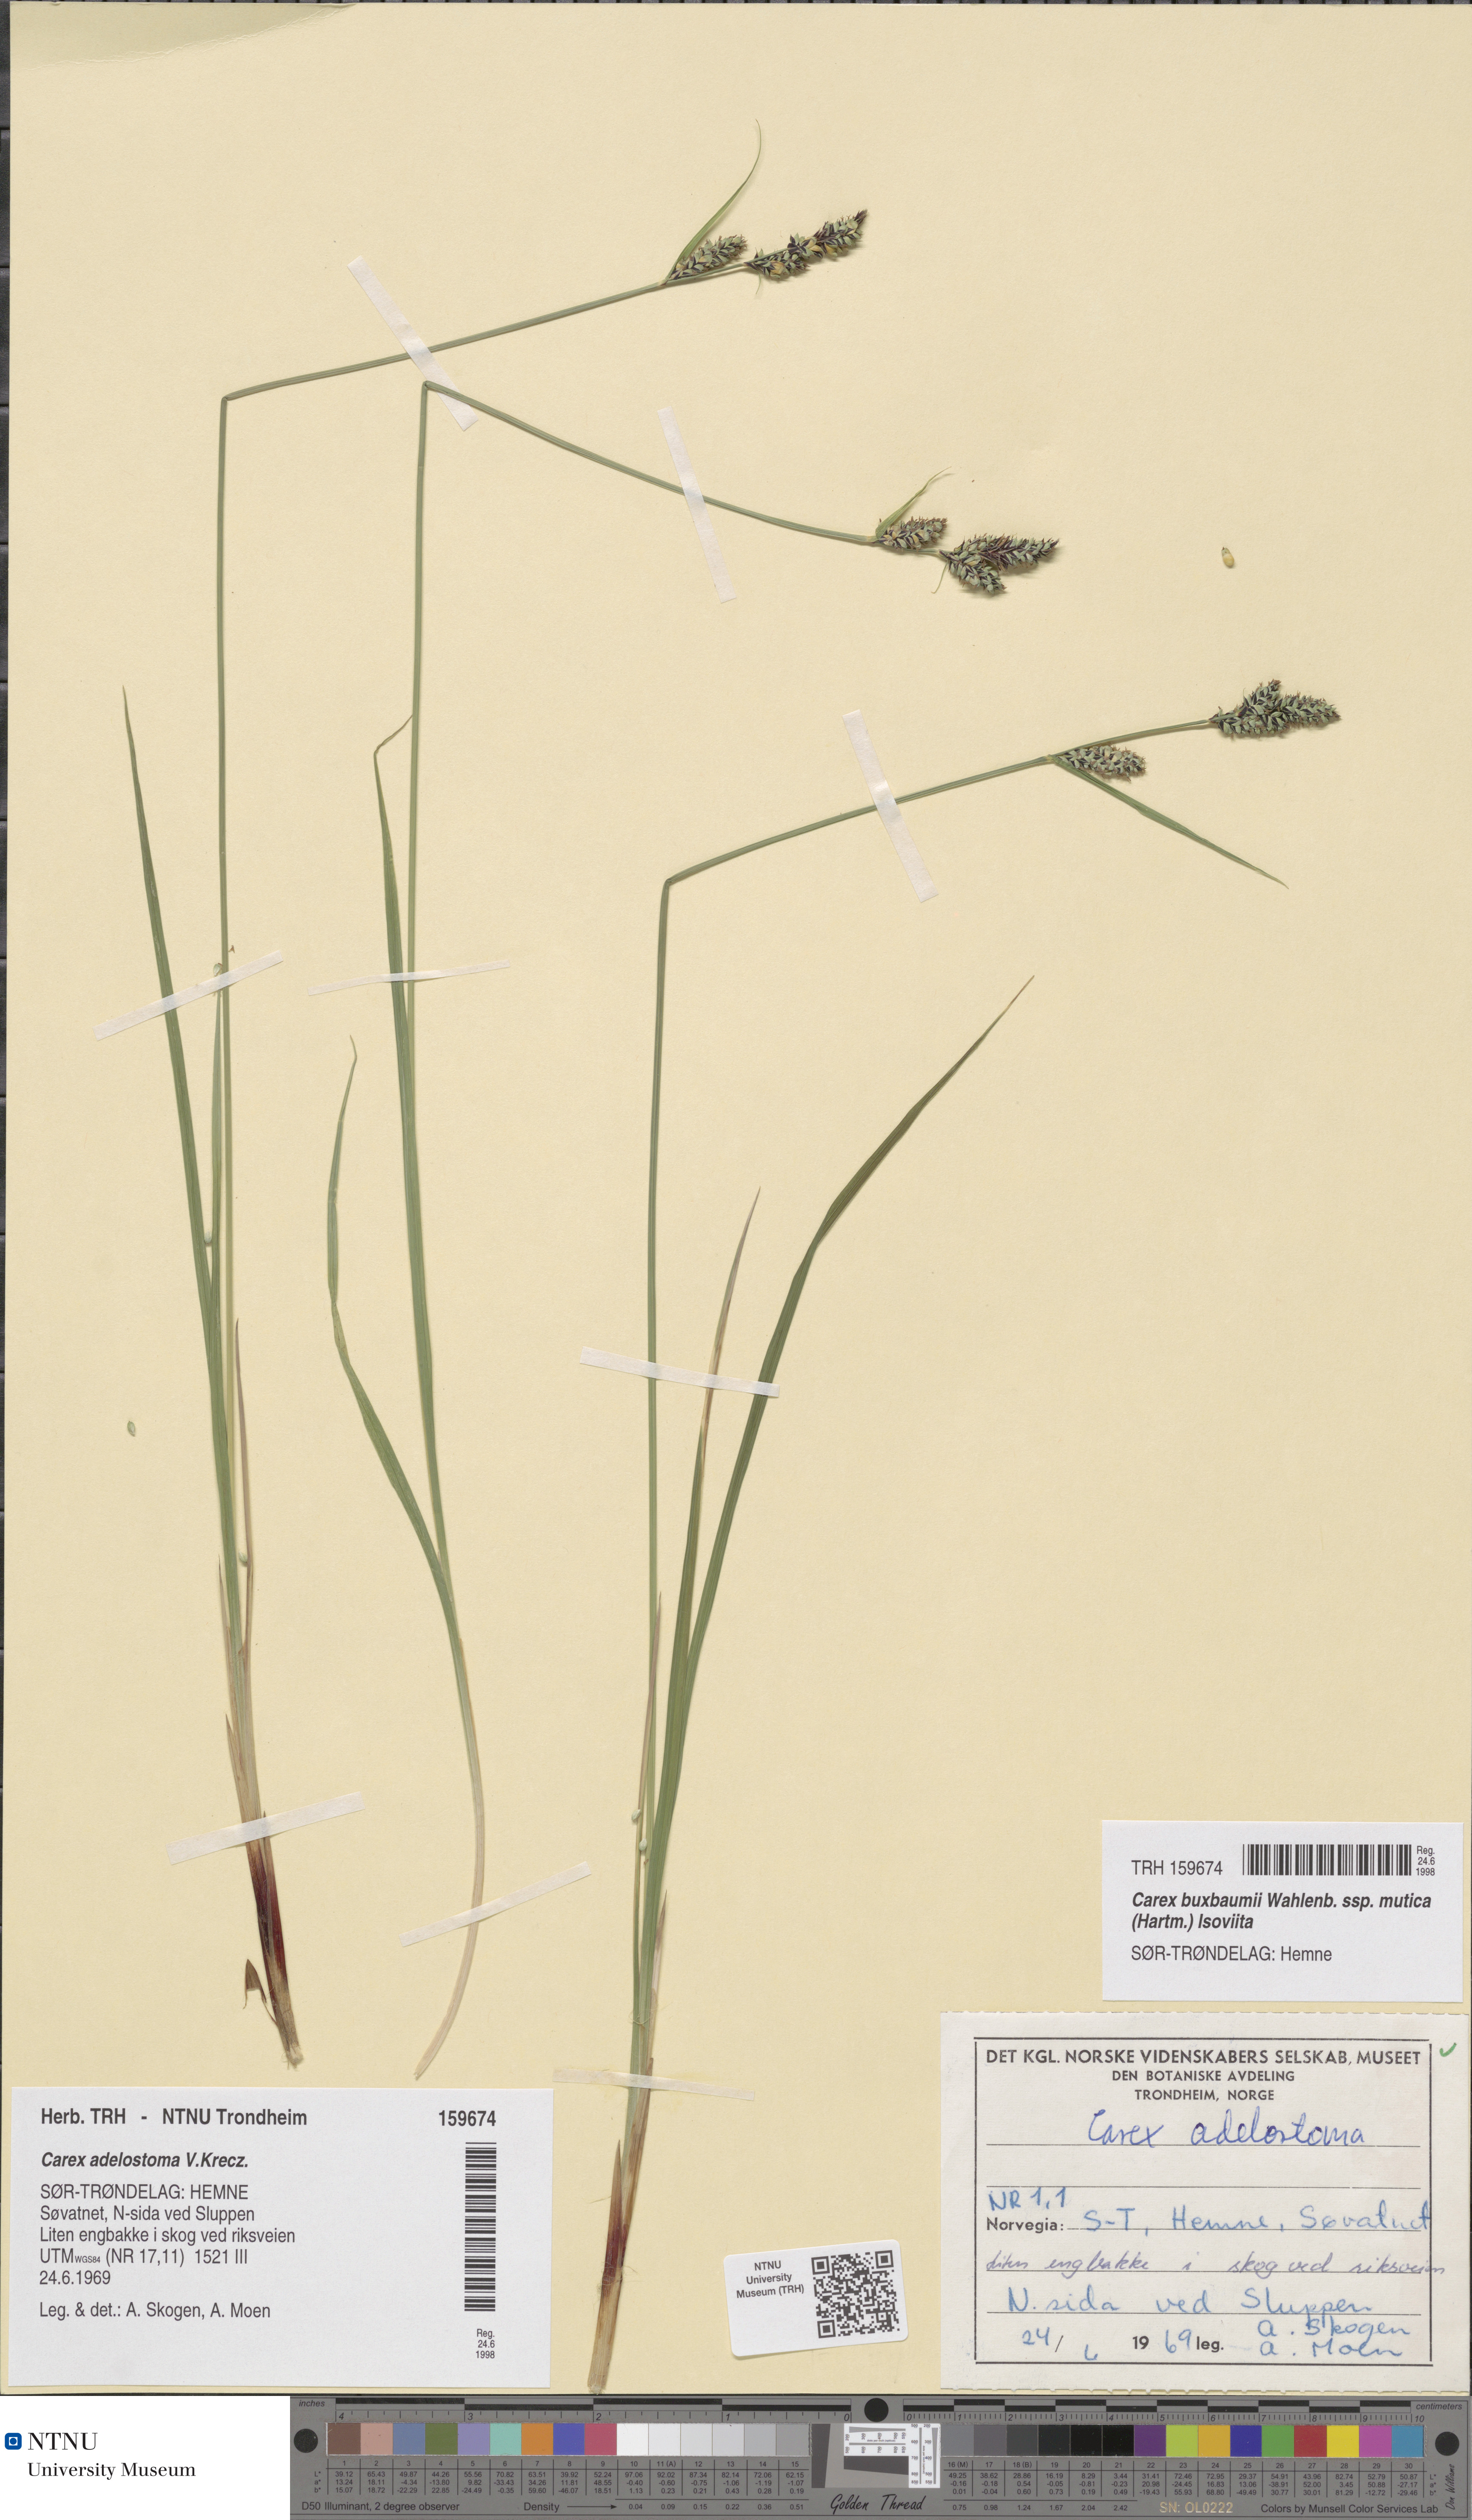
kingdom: Plantae
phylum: Tracheophyta
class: Liliopsida
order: Poales
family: Cyperaceae
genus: Carex
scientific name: Carex adelostoma
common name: Circumpolar sedge
